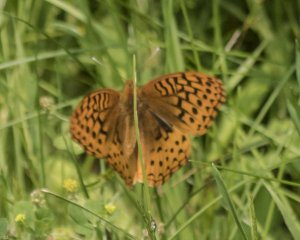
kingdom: Animalia
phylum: Arthropoda
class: Insecta
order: Lepidoptera
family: Nymphalidae
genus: Speyeria
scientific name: Speyeria cybele
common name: Great Spangled Fritillary
